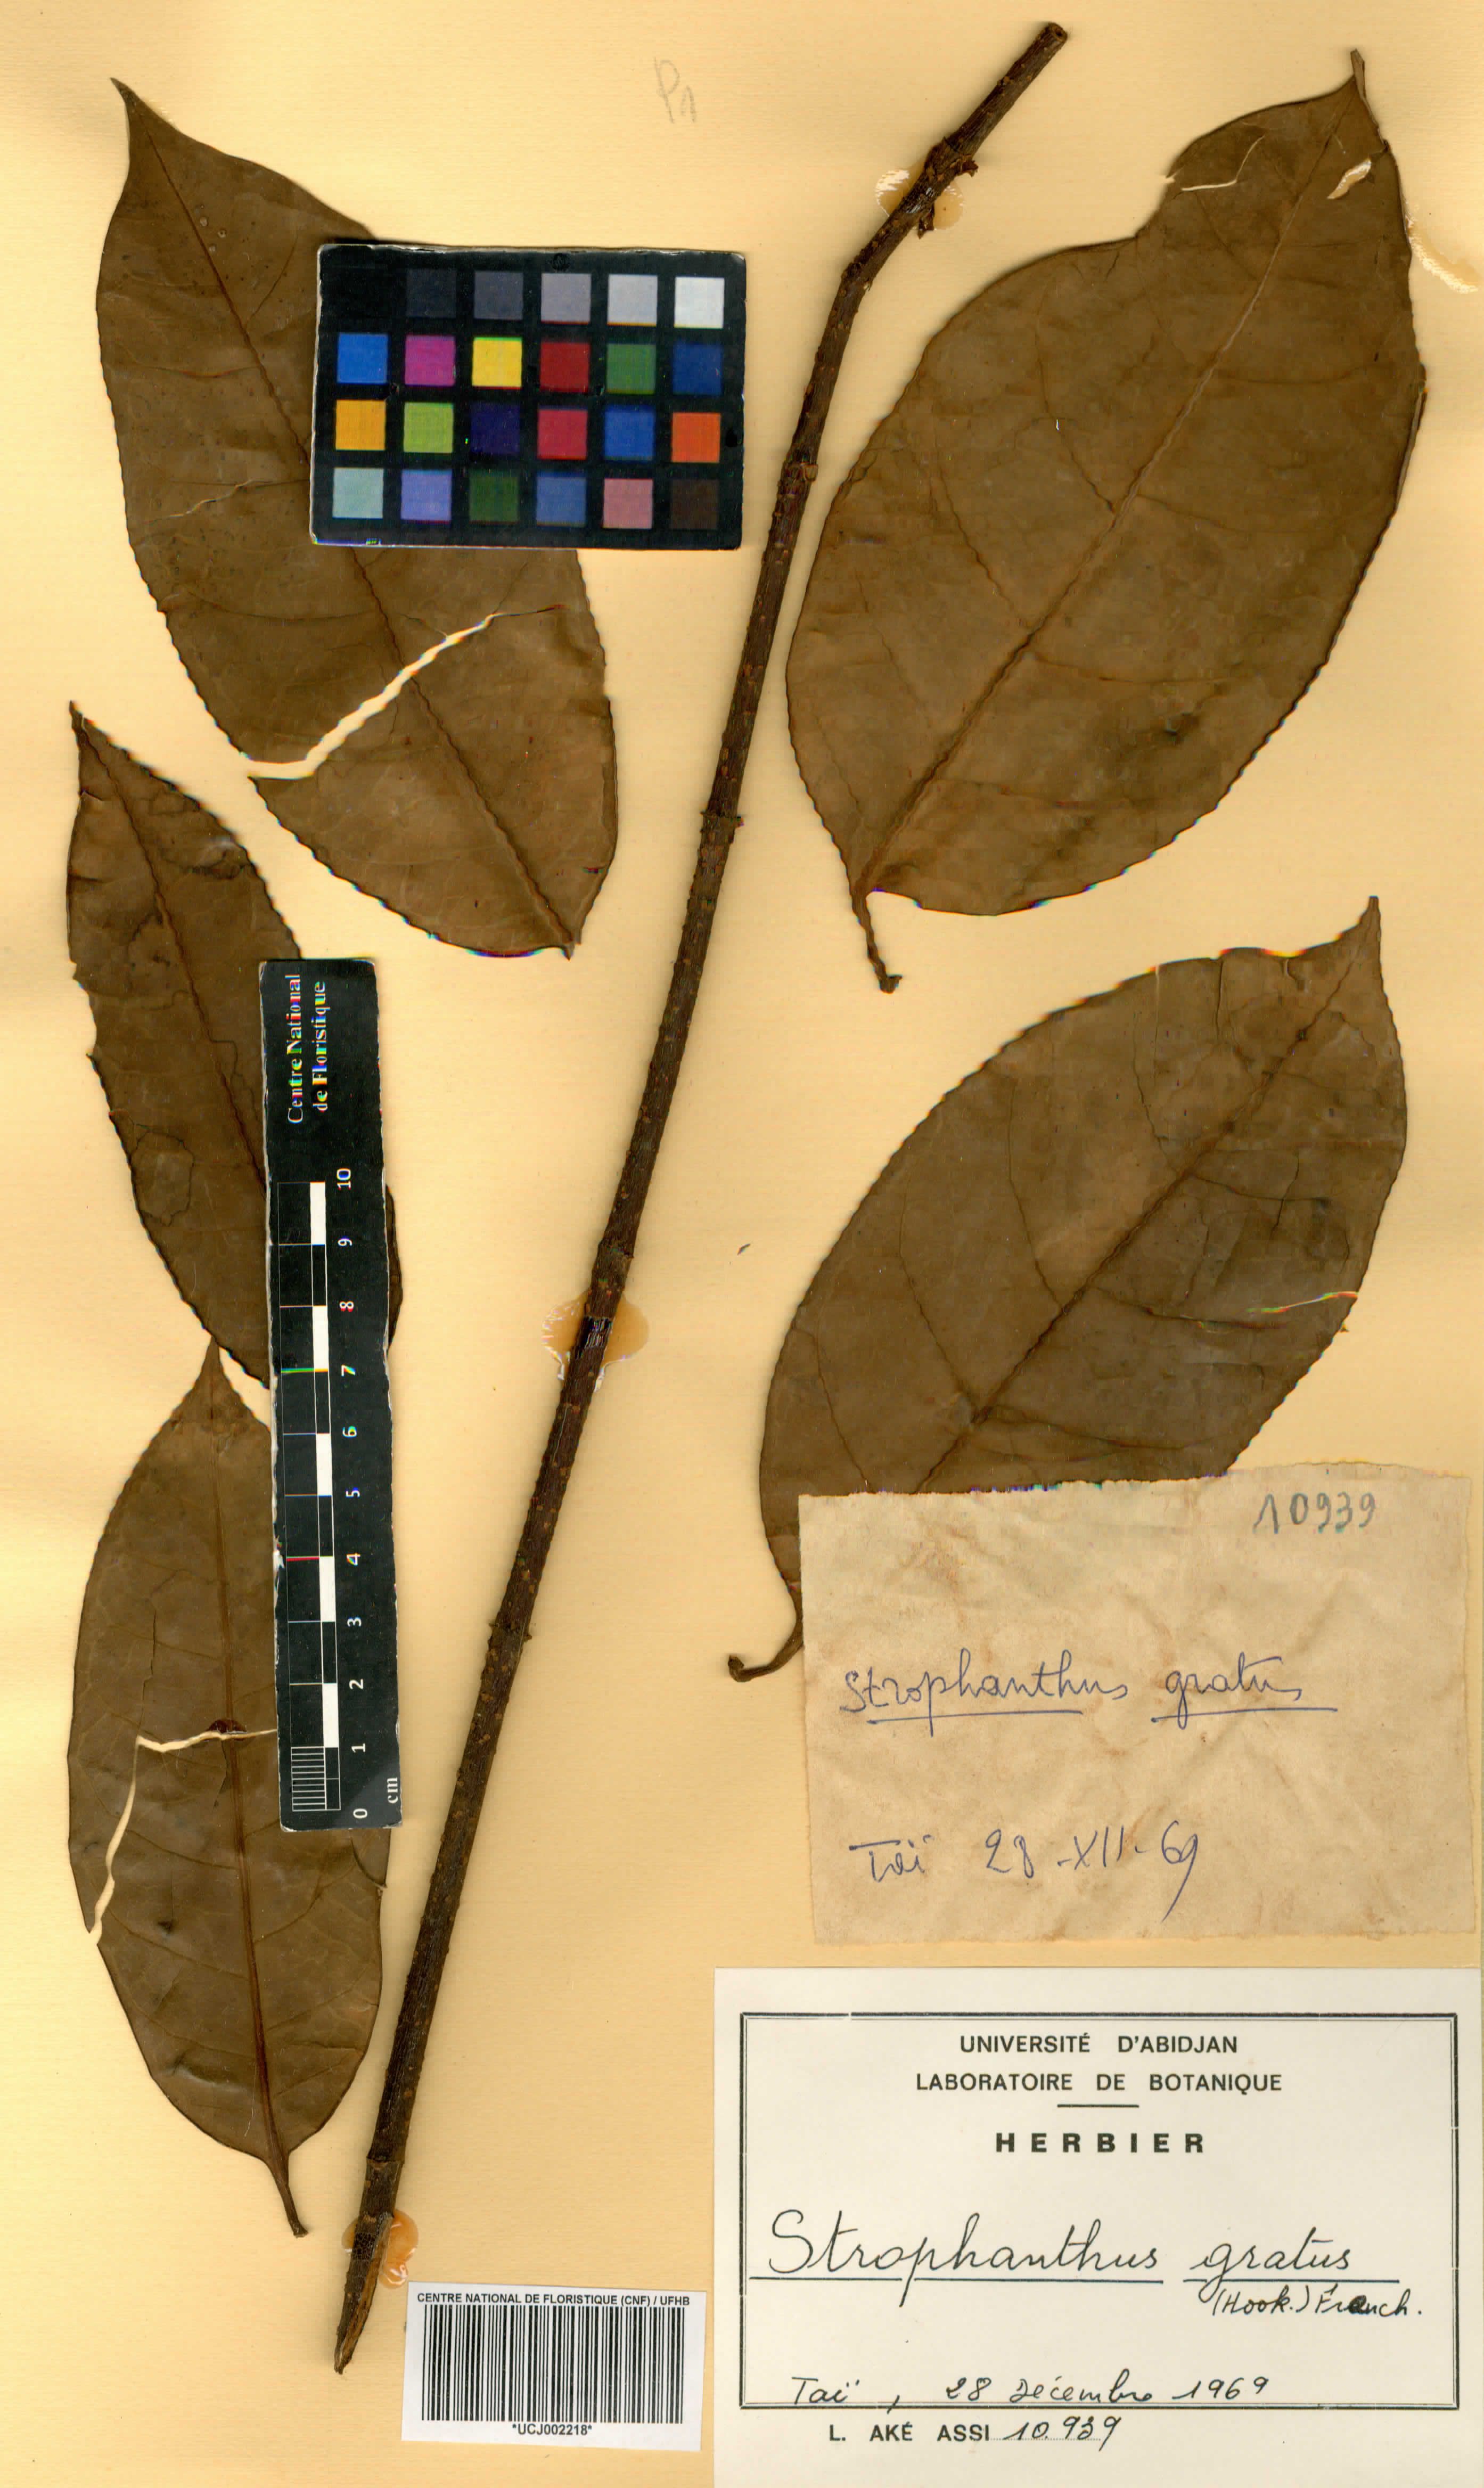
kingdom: Plantae
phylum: Tracheophyta
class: Magnoliopsida
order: Gentianales
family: Apocynaceae
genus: Strophanthus
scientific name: Strophanthus gratus
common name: Climbing-oleander
